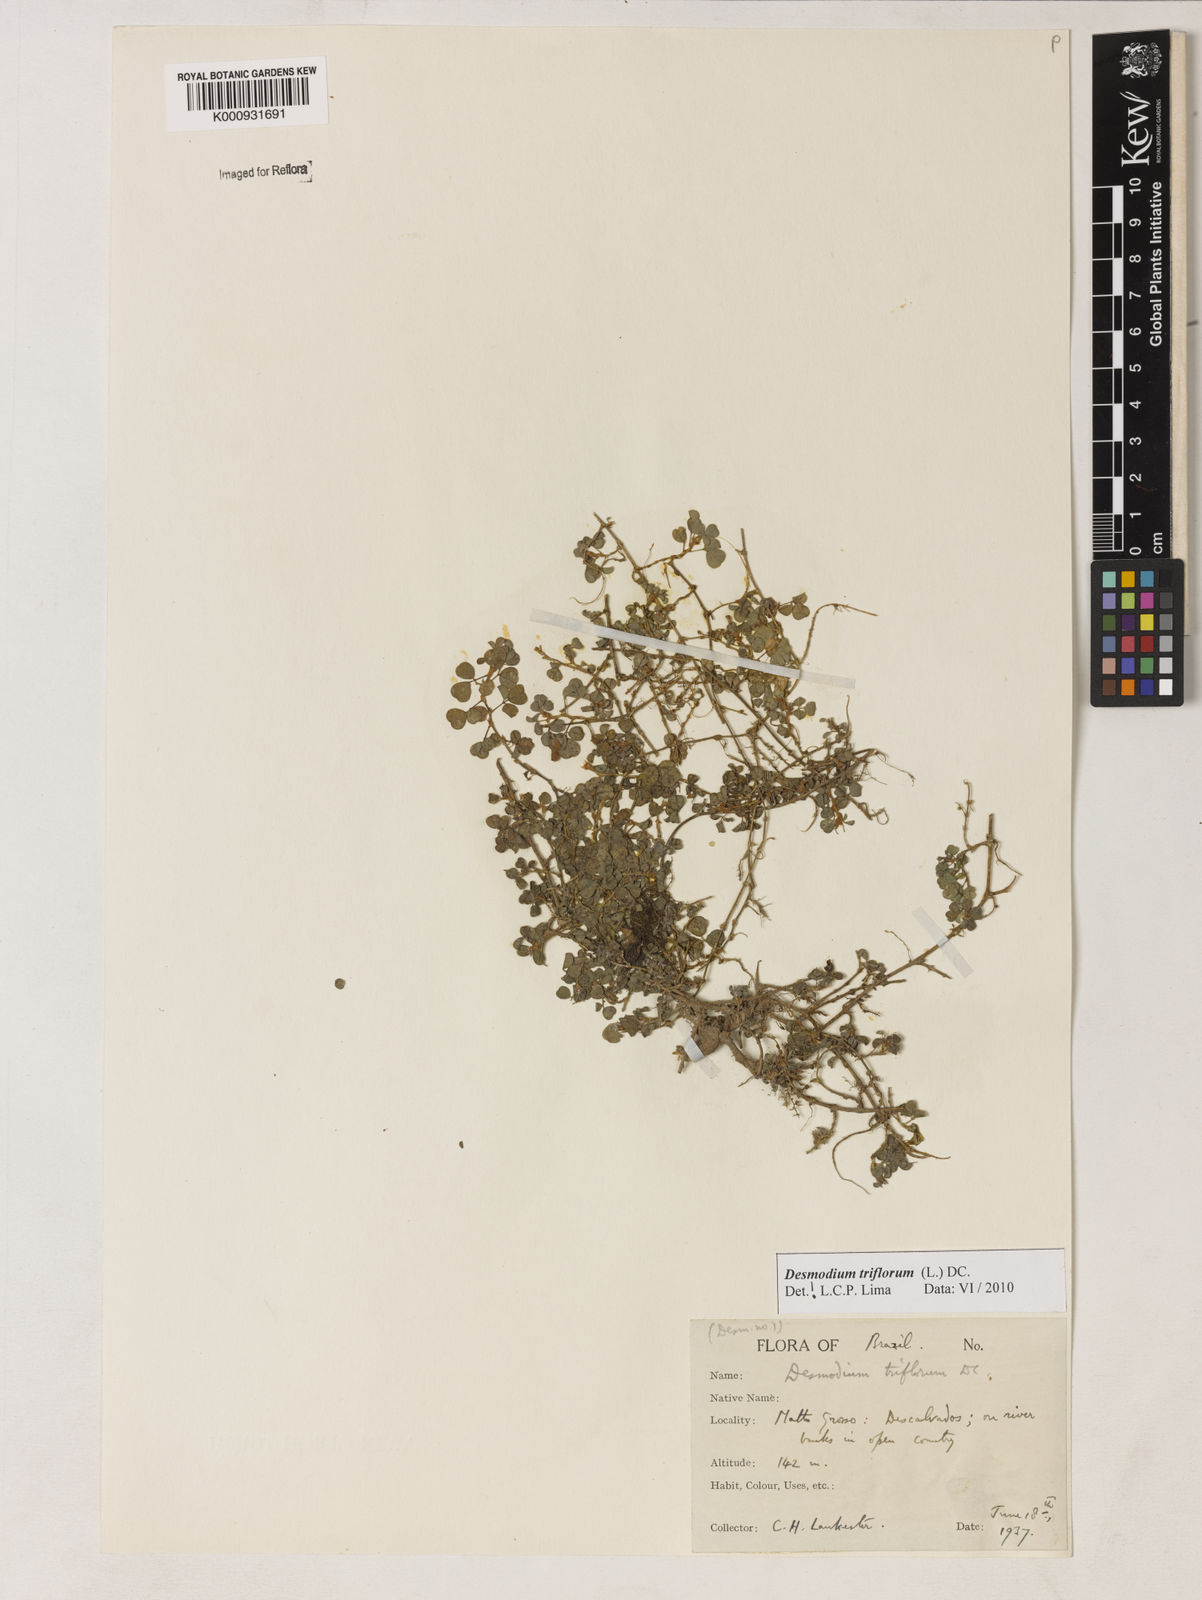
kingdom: Plantae
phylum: Tracheophyta
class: Magnoliopsida
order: Fabales
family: Fabaceae
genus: Grona
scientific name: Grona triflora
